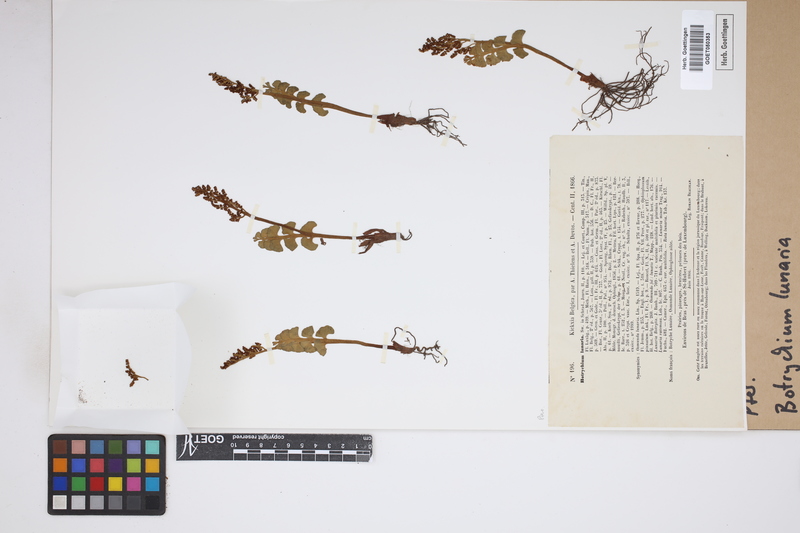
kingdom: Plantae
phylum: Tracheophyta
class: Polypodiopsida
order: Ophioglossales
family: Ophioglossaceae
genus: Botrychium
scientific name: Botrychium lunaria
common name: Moonwort
